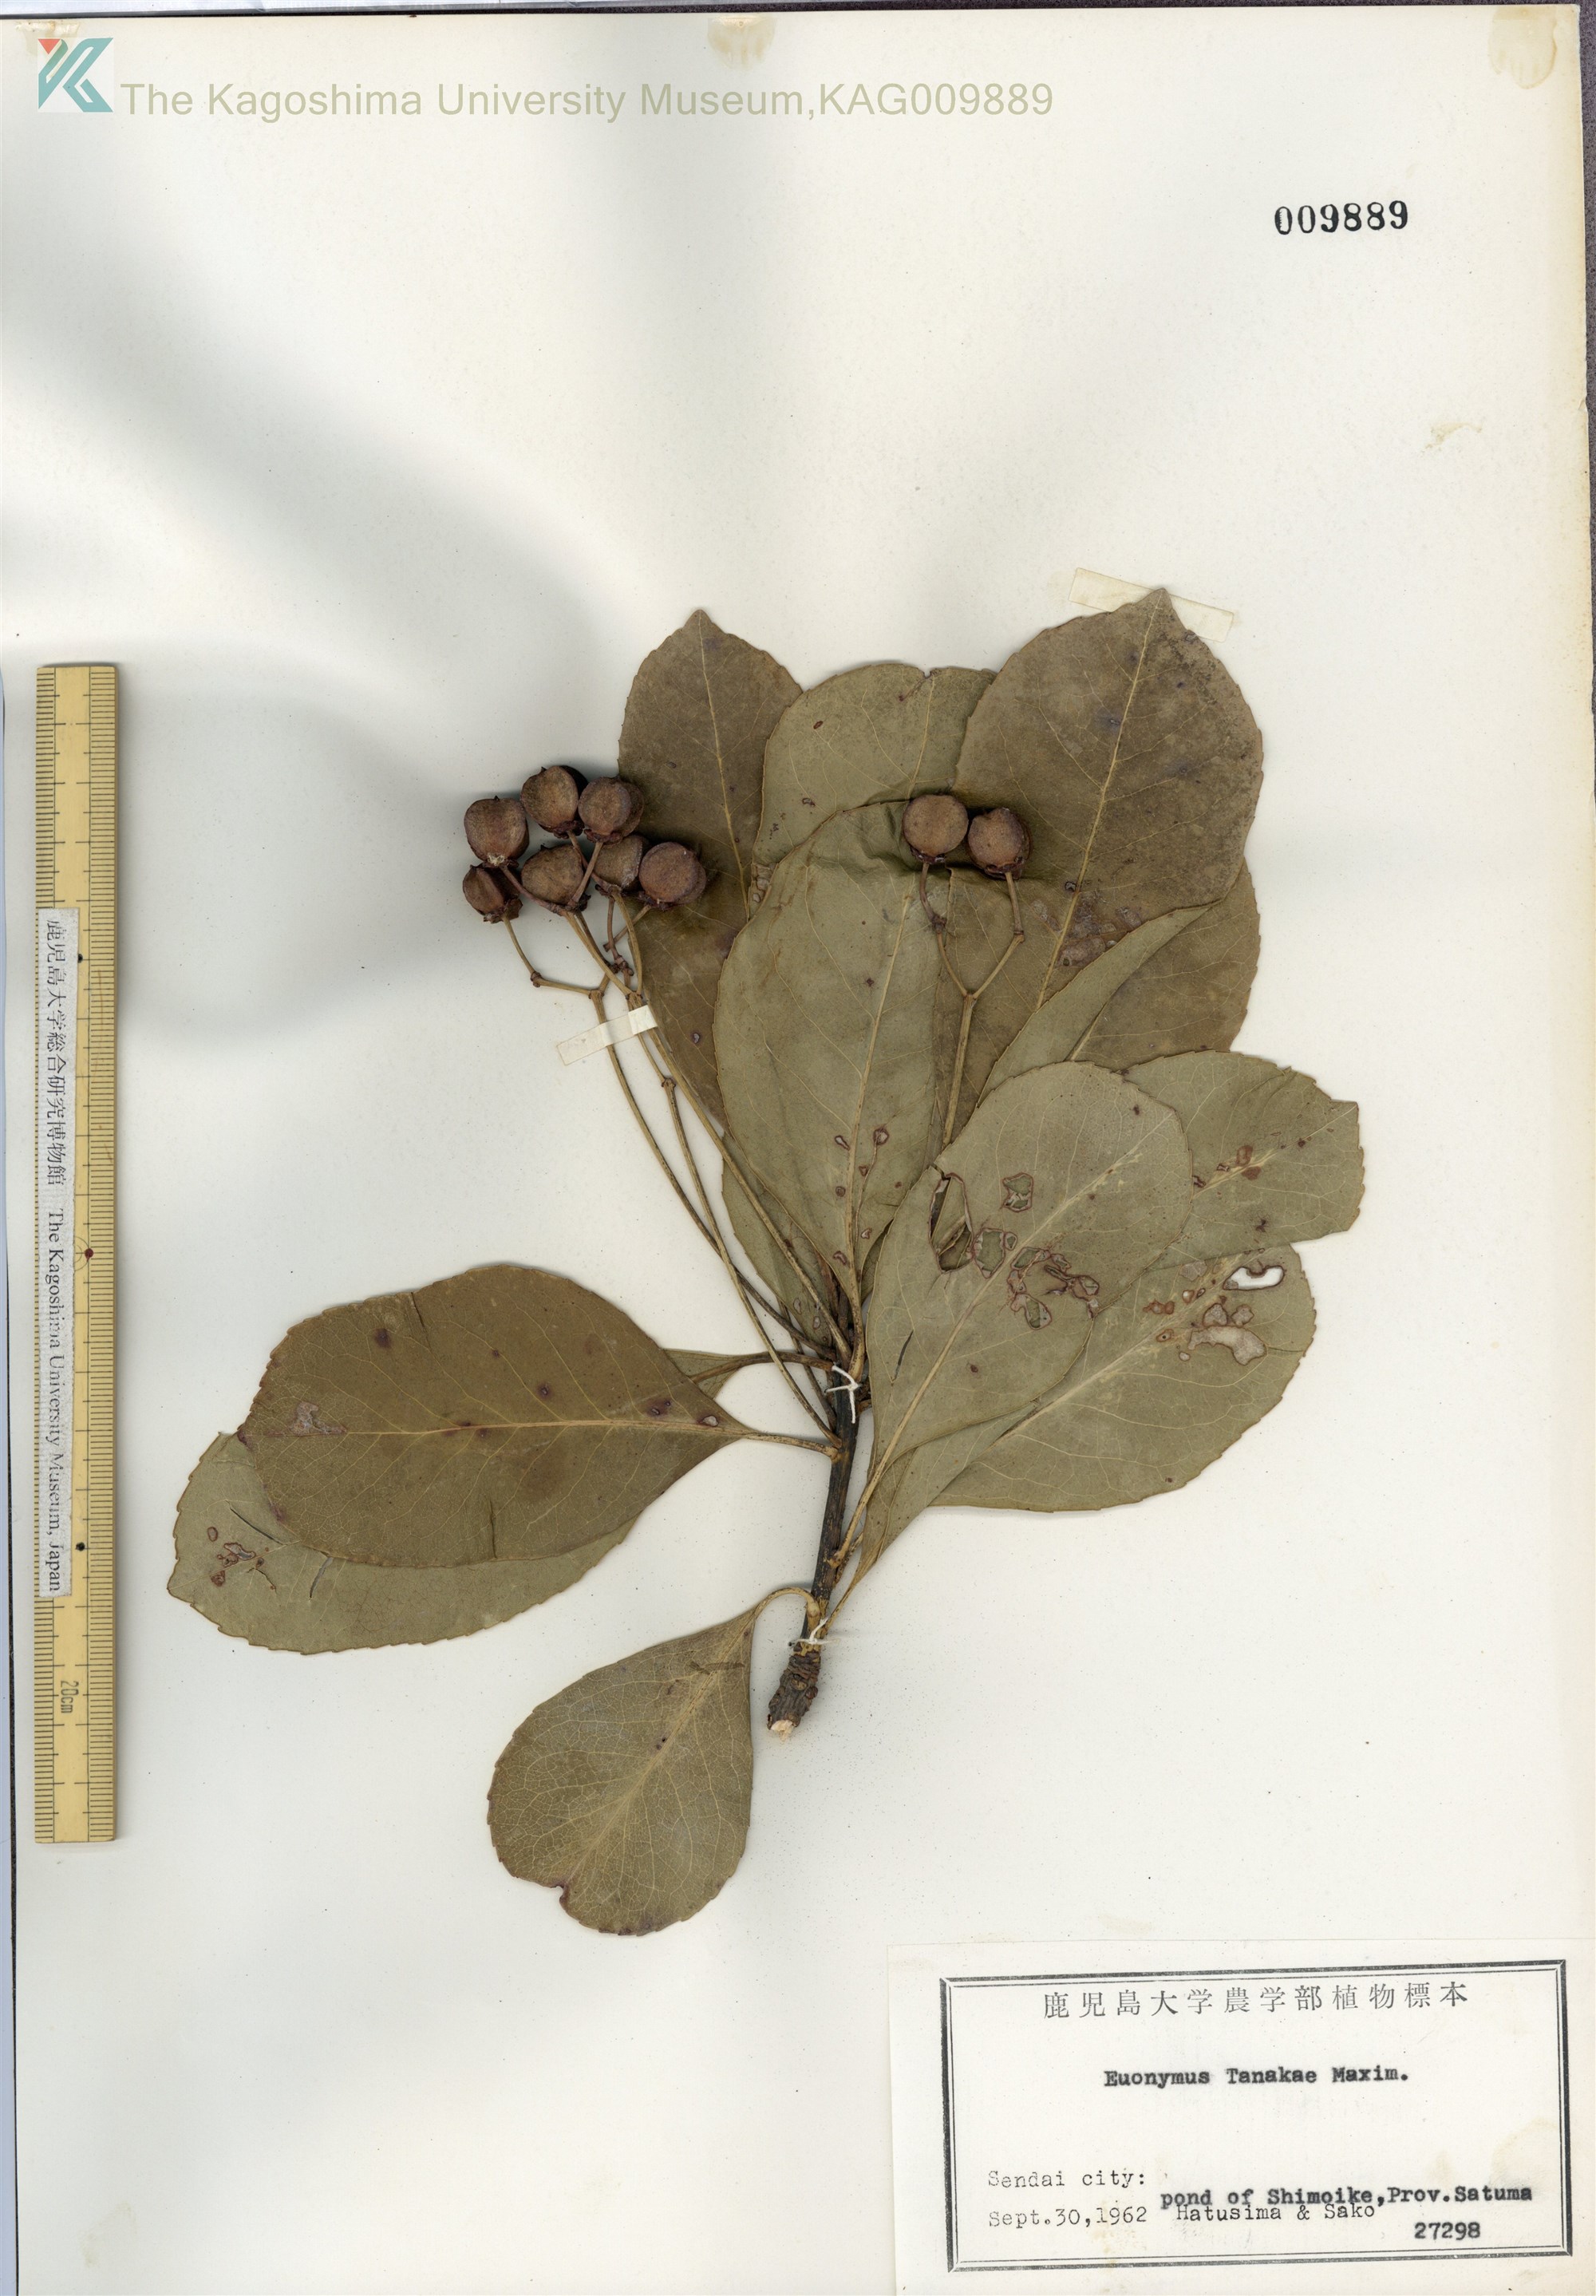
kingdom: Plantae
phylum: Tracheophyta
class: Magnoliopsida
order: Celastrales
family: Celastraceae
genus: Euonymus
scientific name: Euonymus carnosus
